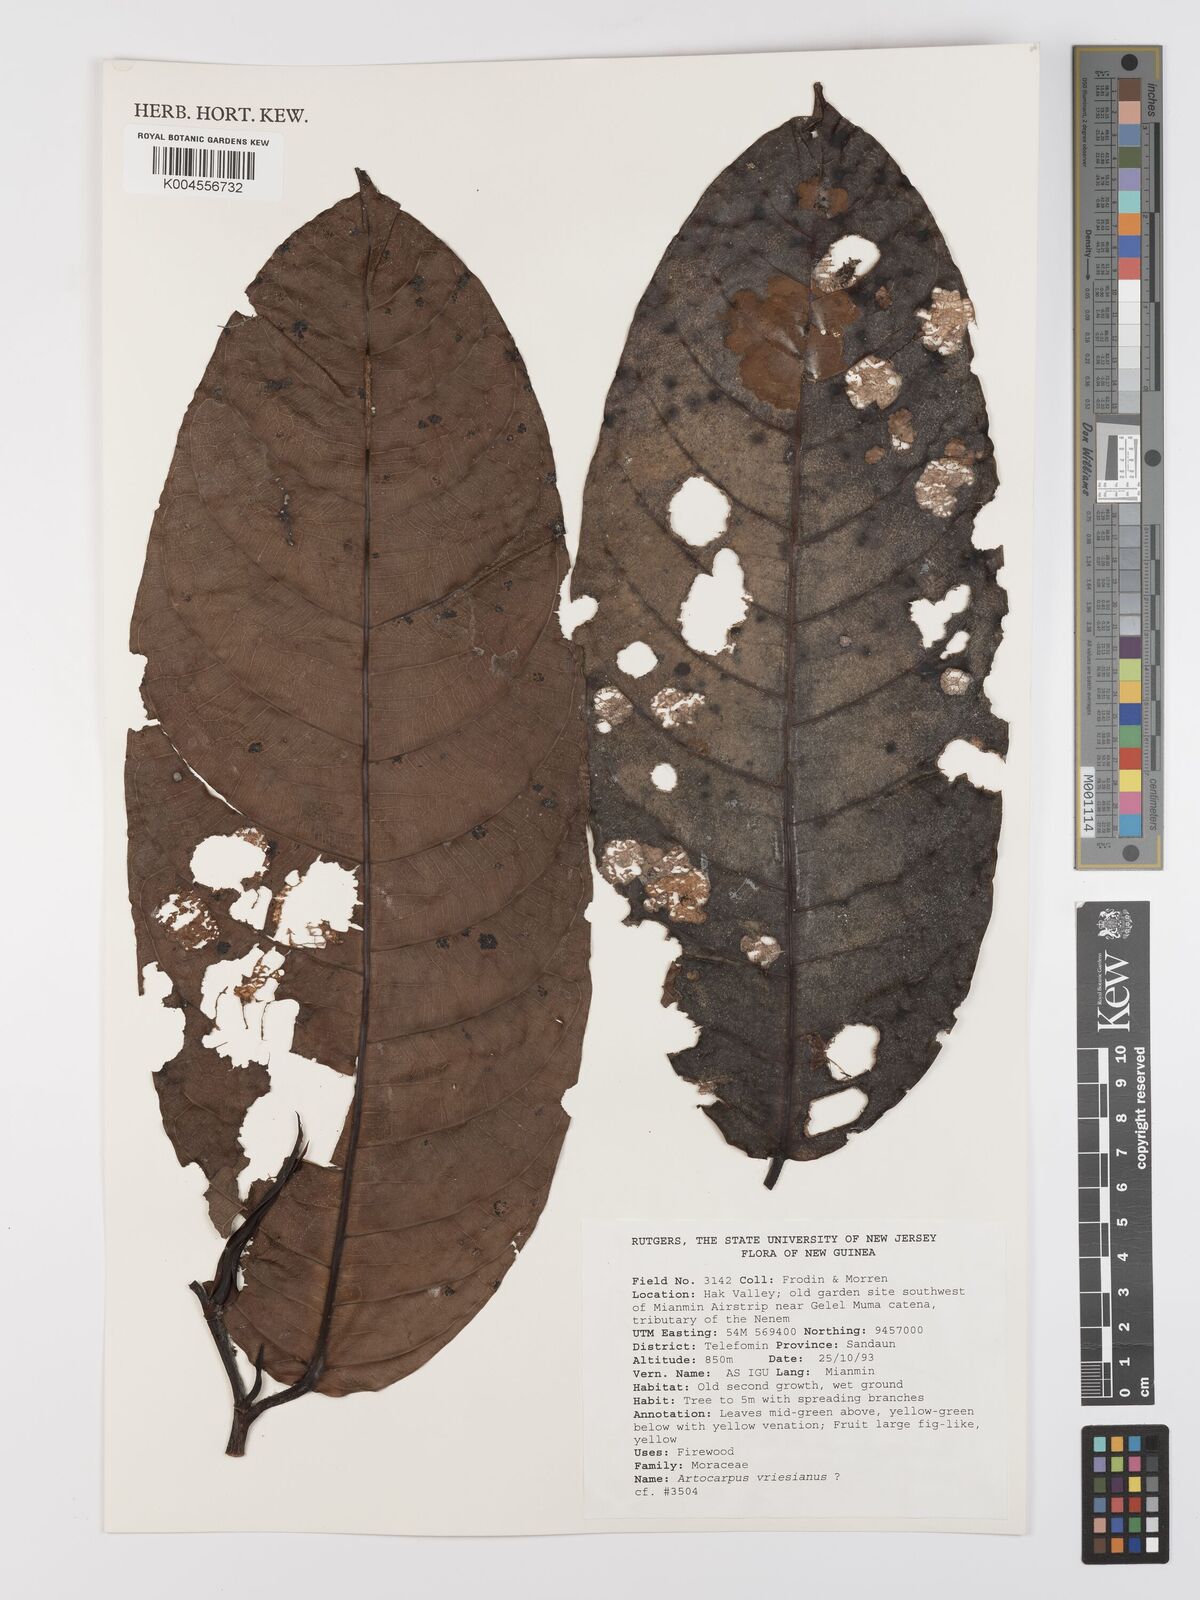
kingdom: Plantae
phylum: Tracheophyta
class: Magnoliopsida
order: Rosales
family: Moraceae
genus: Artocarpus
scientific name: Artocarpus vrieseanus
